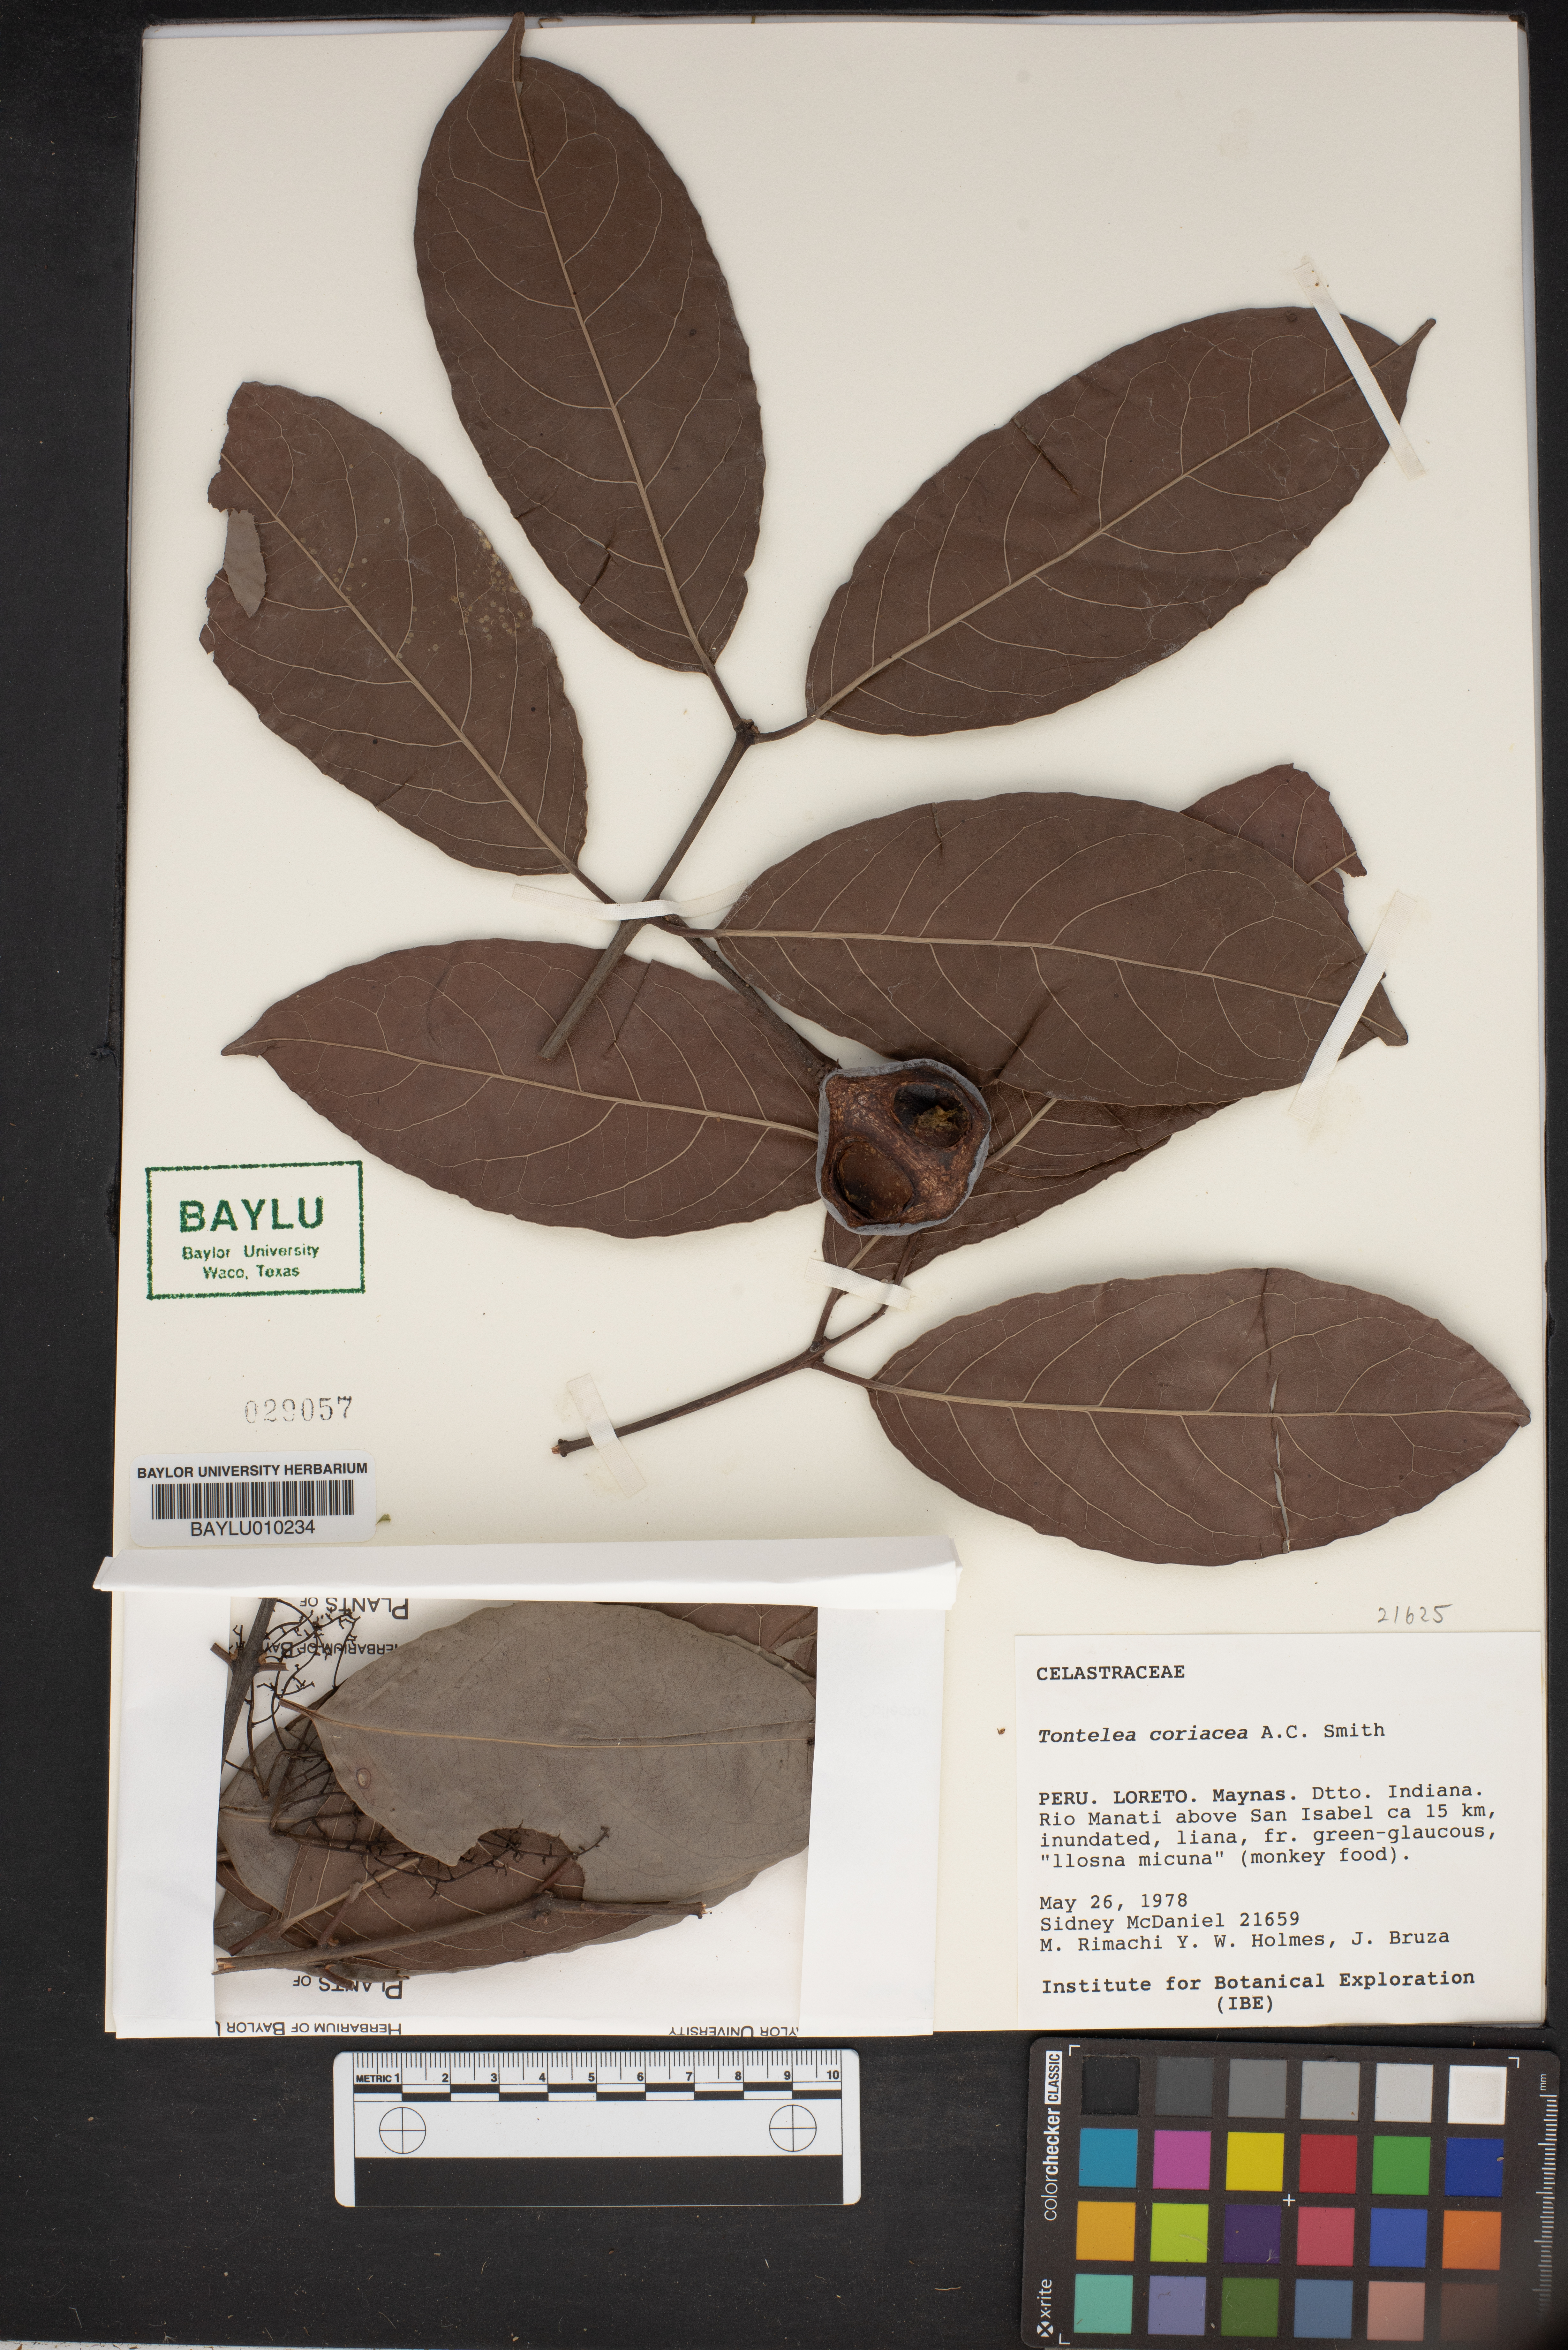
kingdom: Plantae
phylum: Tracheophyta
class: Magnoliopsida
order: Celastrales
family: Celastraceae
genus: Tontelea
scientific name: Tontelea mauritioides
